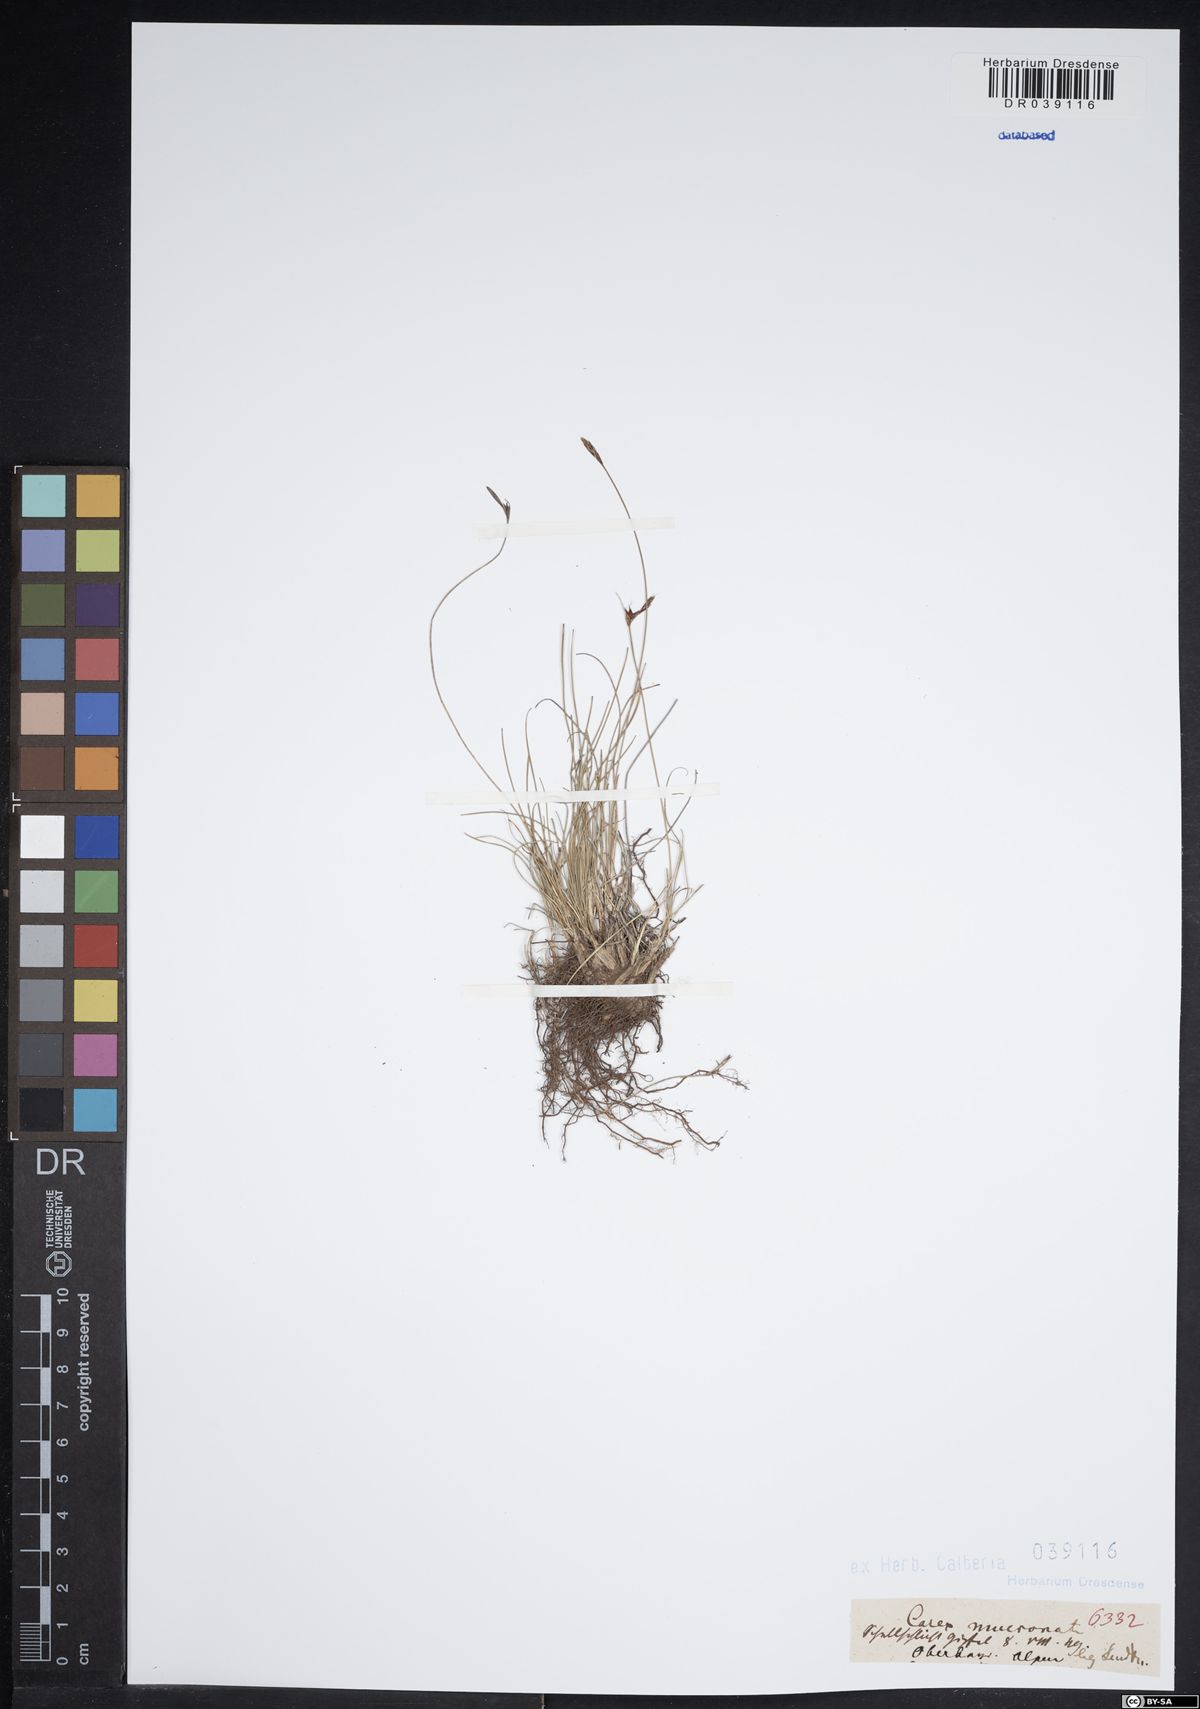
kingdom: Plantae
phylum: Tracheophyta
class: Liliopsida
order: Poales
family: Cyperaceae
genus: Carex
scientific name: Carex mucronata
